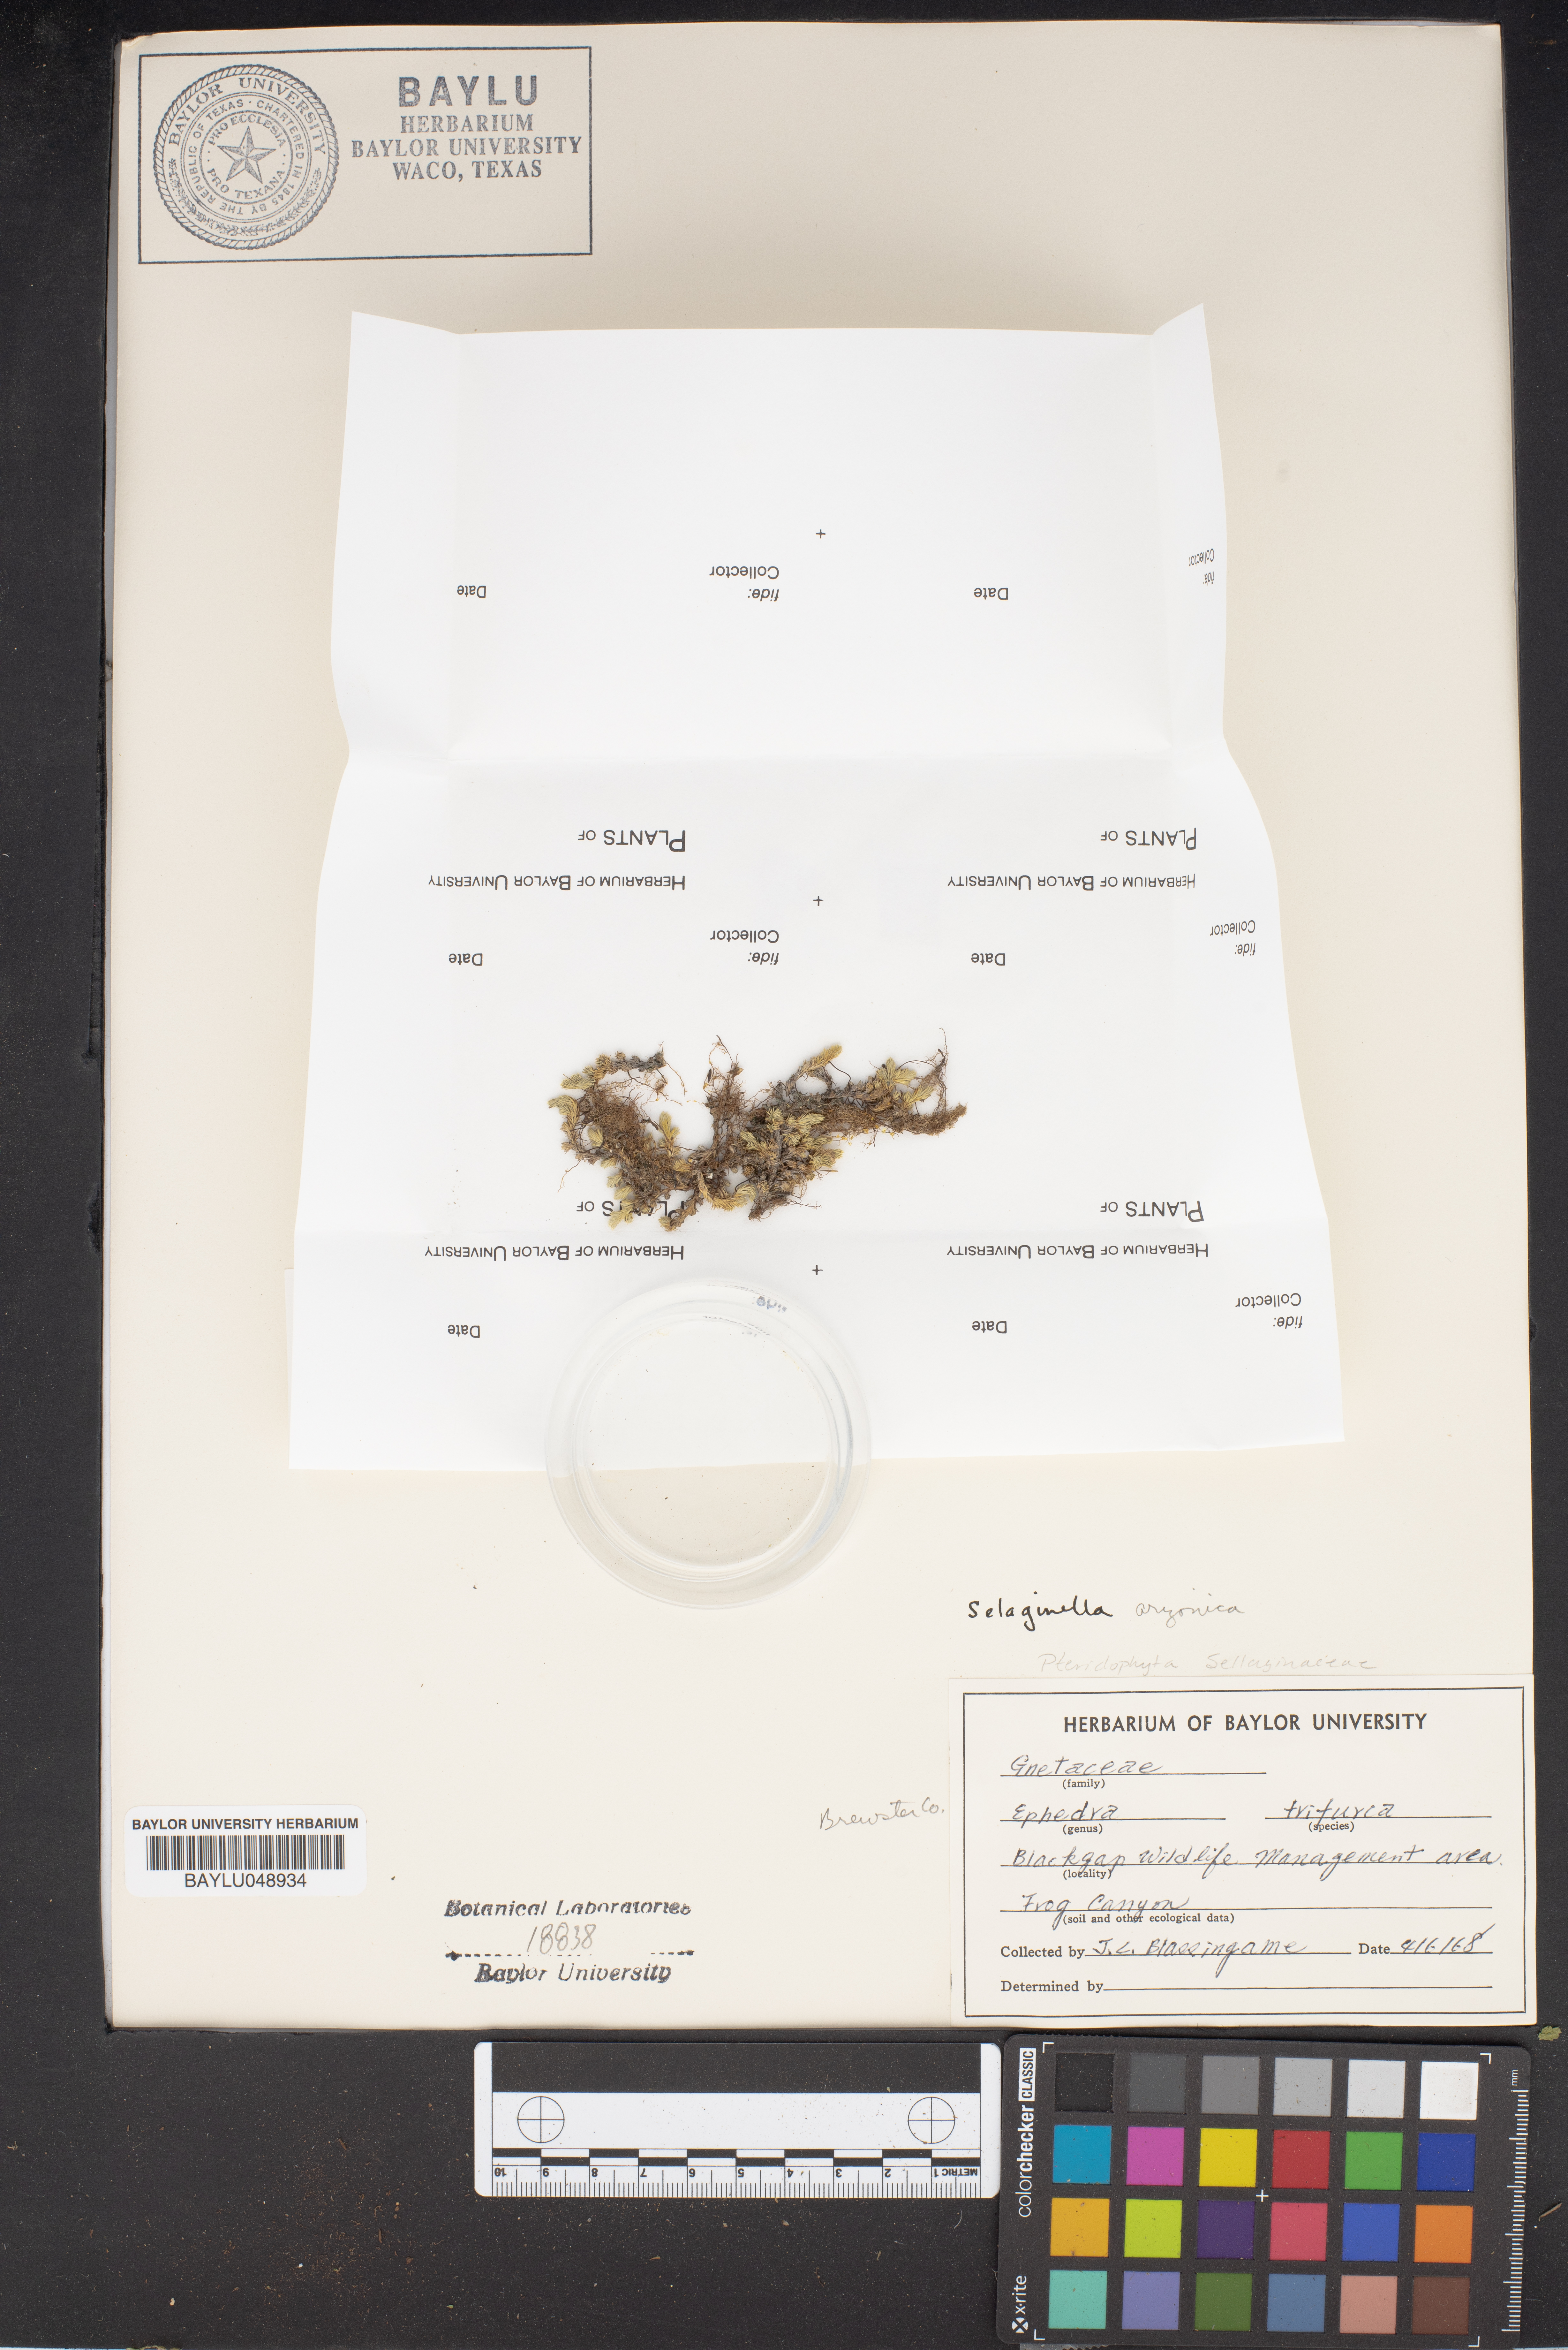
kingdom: Plantae
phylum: Tracheophyta
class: Gnetopsida
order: Ephedrales
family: Ephedraceae
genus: Ephedra
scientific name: Ephedra trifurca
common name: Mexican-tea
